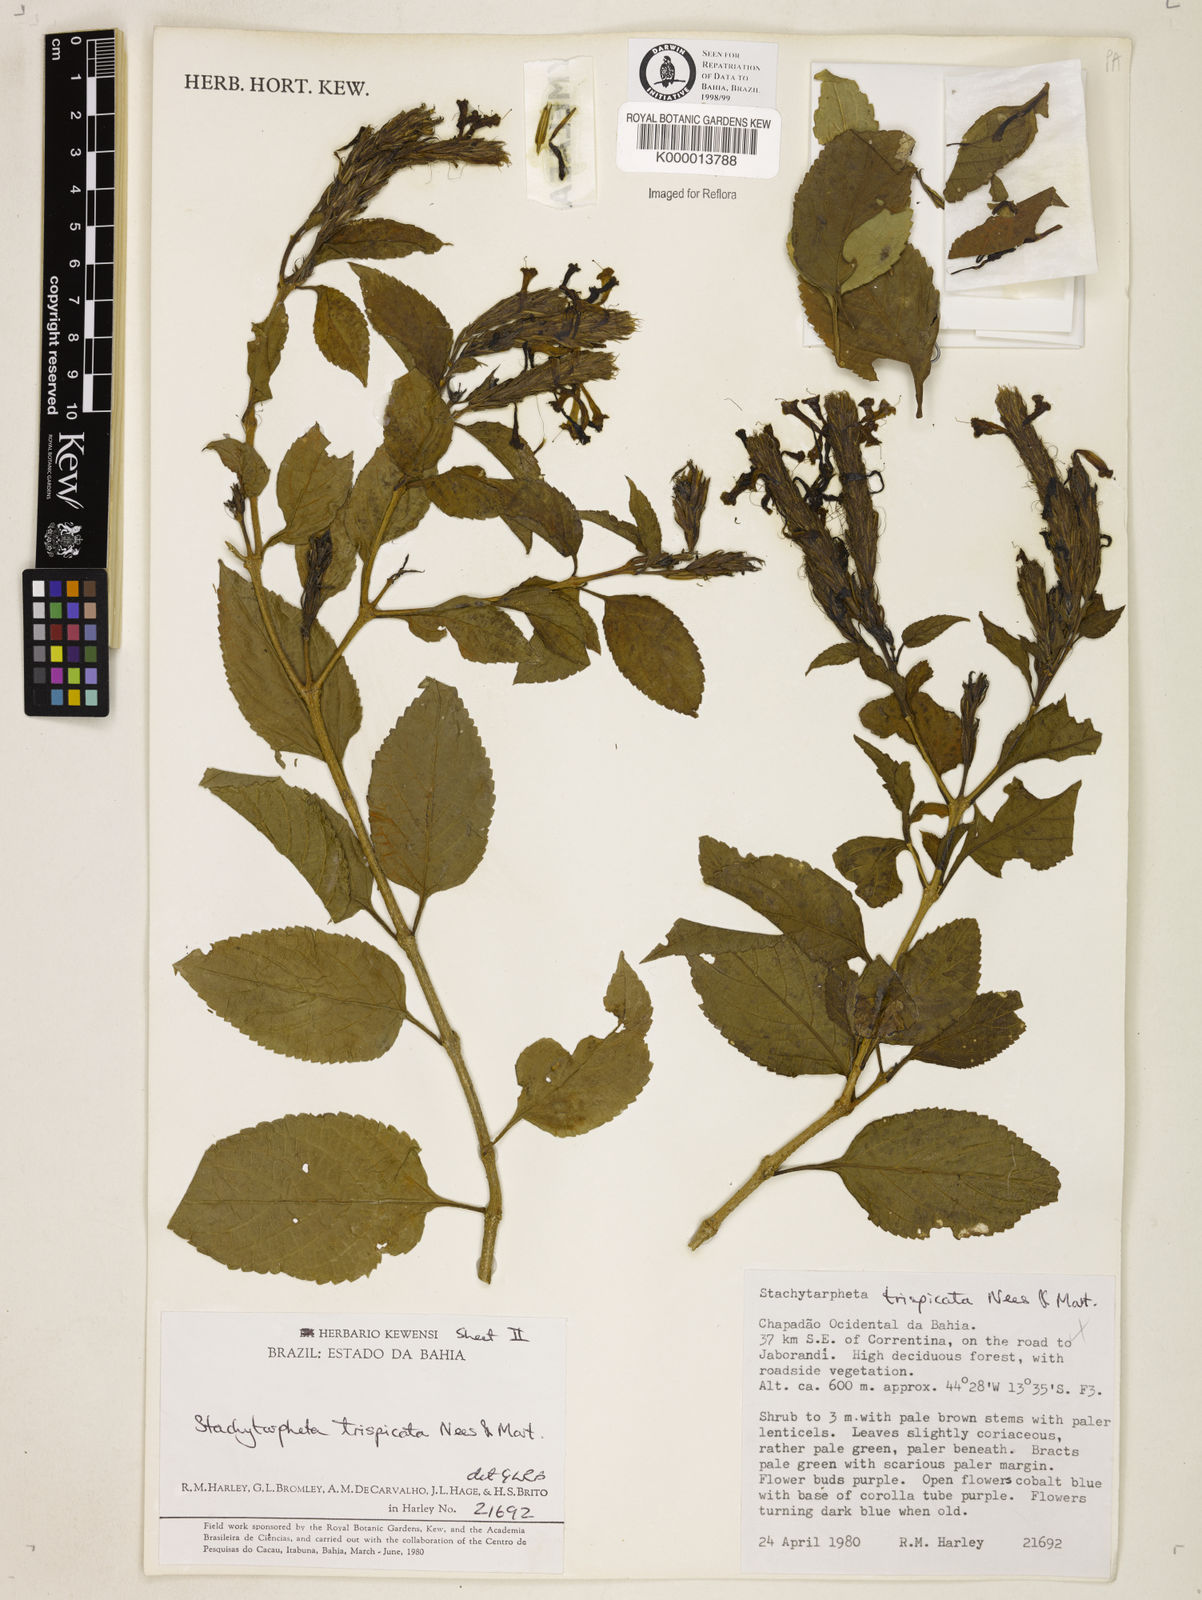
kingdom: Plantae
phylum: Tracheophyta
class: Magnoliopsida
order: Lamiales
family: Verbenaceae
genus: Stachytarpheta
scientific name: Stachytarpheta trispicata
